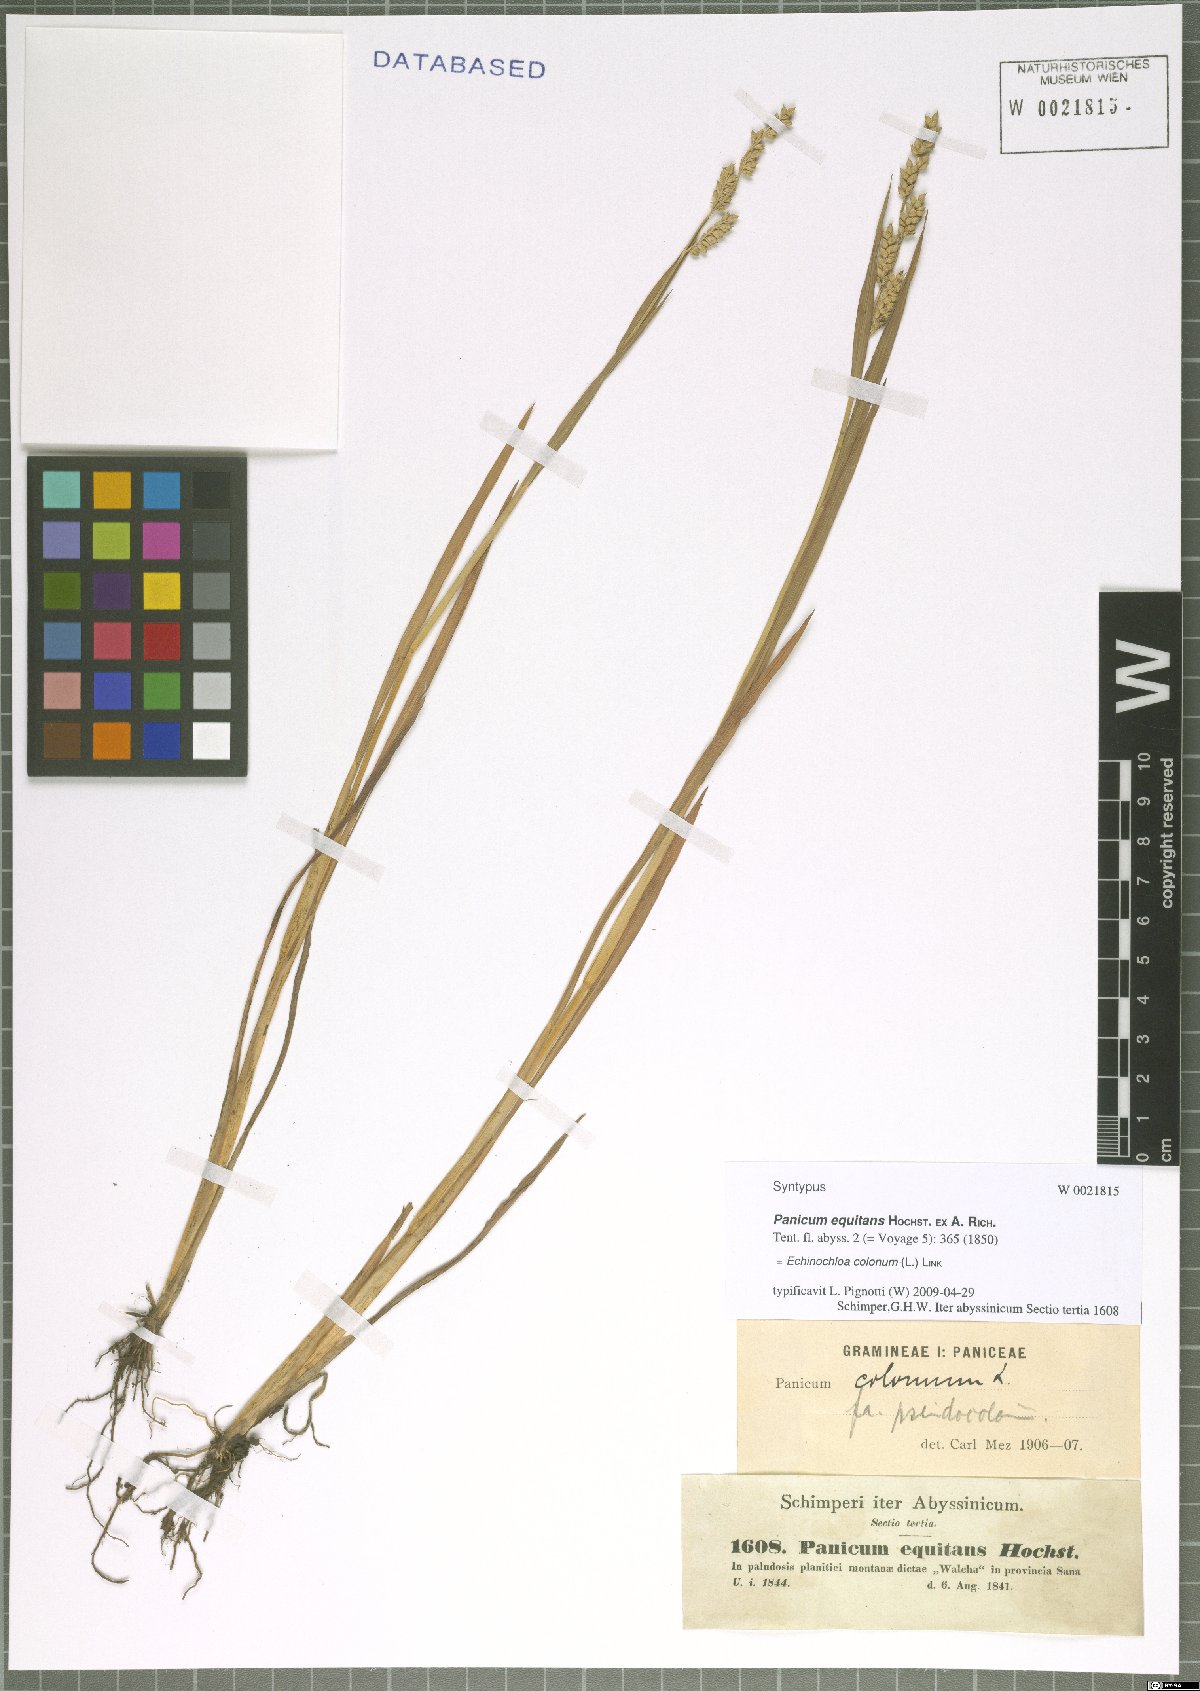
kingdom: Plantae
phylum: Tracheophyta
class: Liliopsida
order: Poales
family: Poaceae
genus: Echinochloa
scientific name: Echinochloa colonum
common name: Jungle rice
